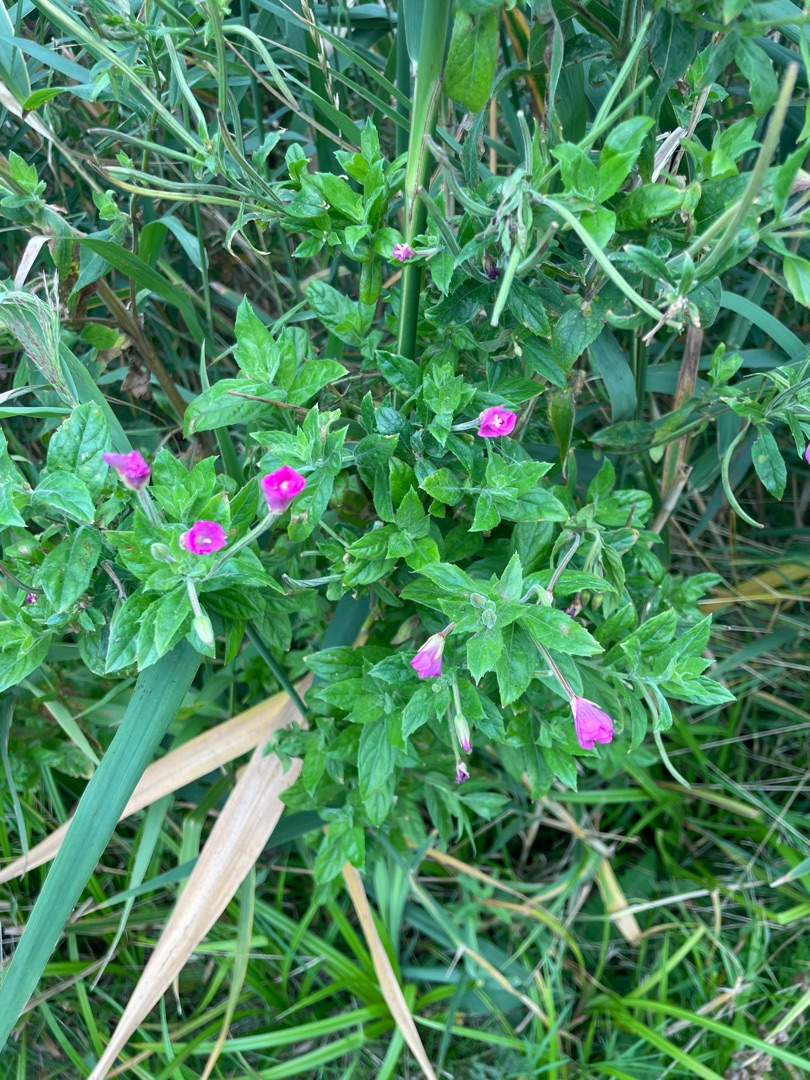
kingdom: Plantae
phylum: Tracheophyta
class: Magnoliopsida
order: Myrtales
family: Onagraceae
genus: Epilobium
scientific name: Epilobium hirsutum
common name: Lådden dueurt
